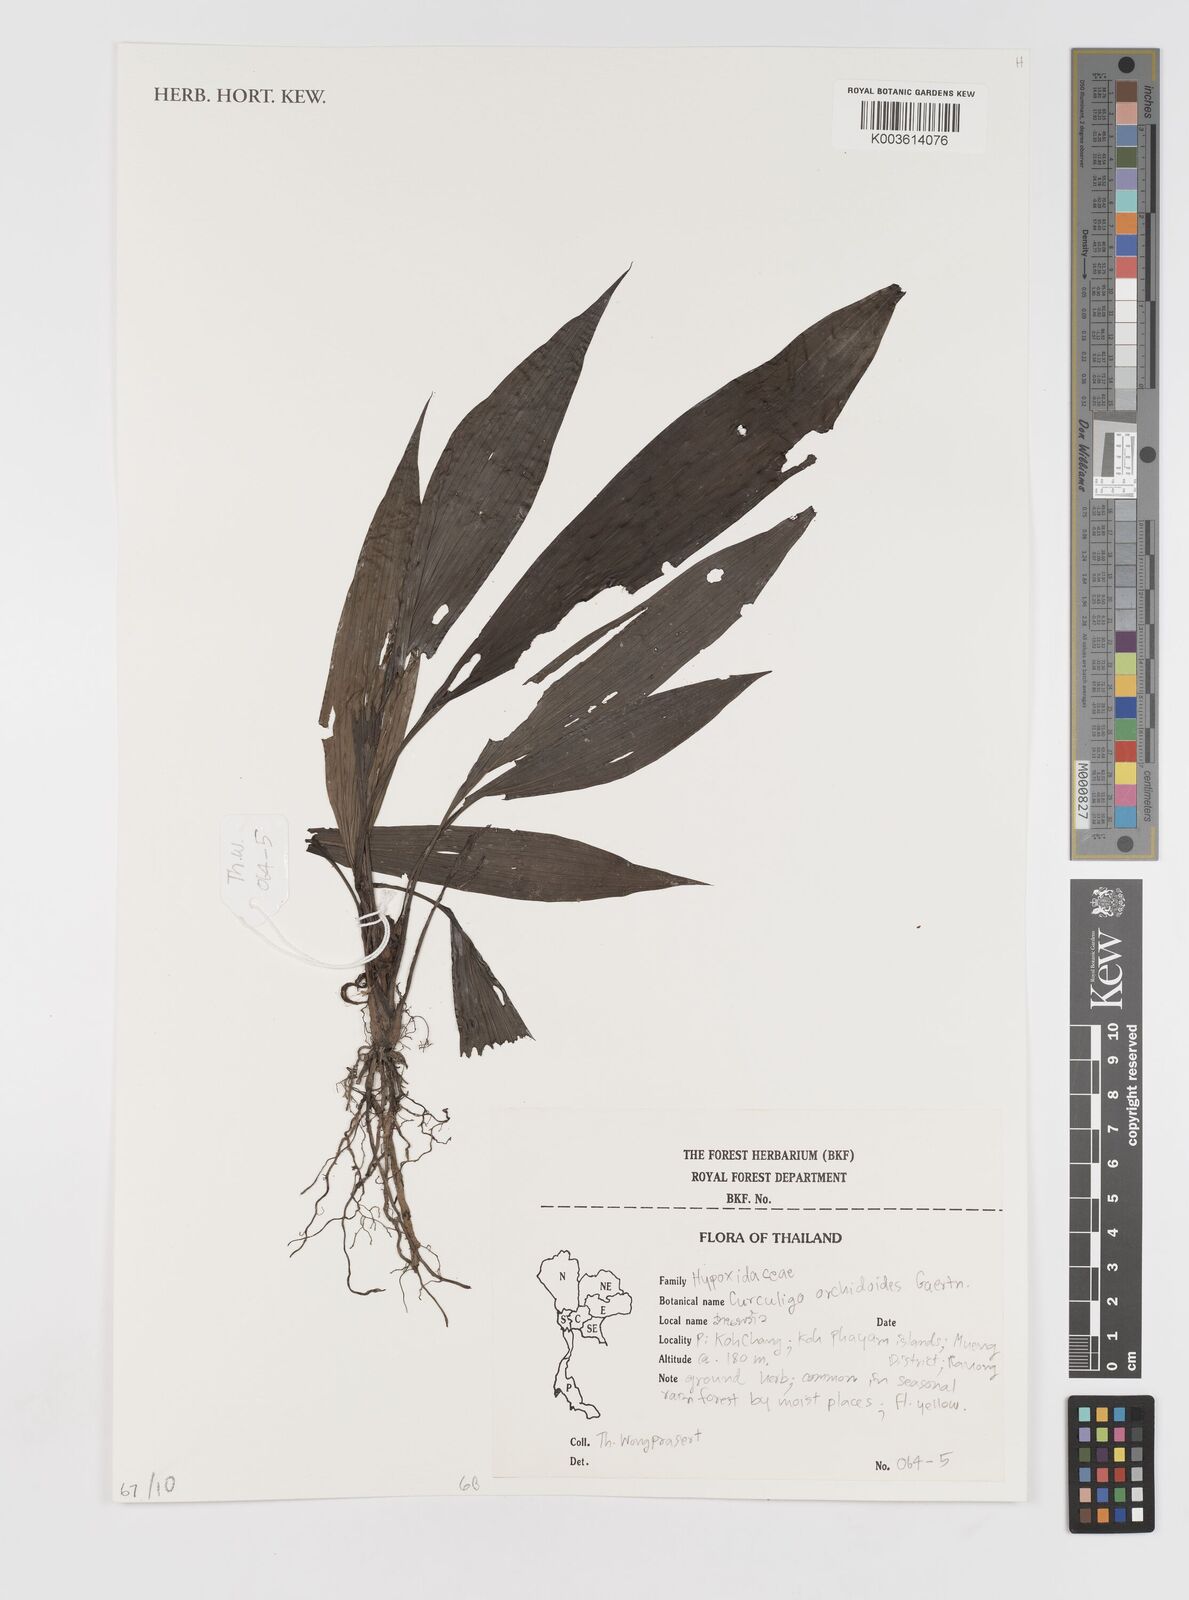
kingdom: Plantae
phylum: Tracheophyta
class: Liliopsida
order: Asparagales
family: Hypoxidaceae
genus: Curculigo
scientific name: Curculigo orchioides
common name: Golden eye-grass
